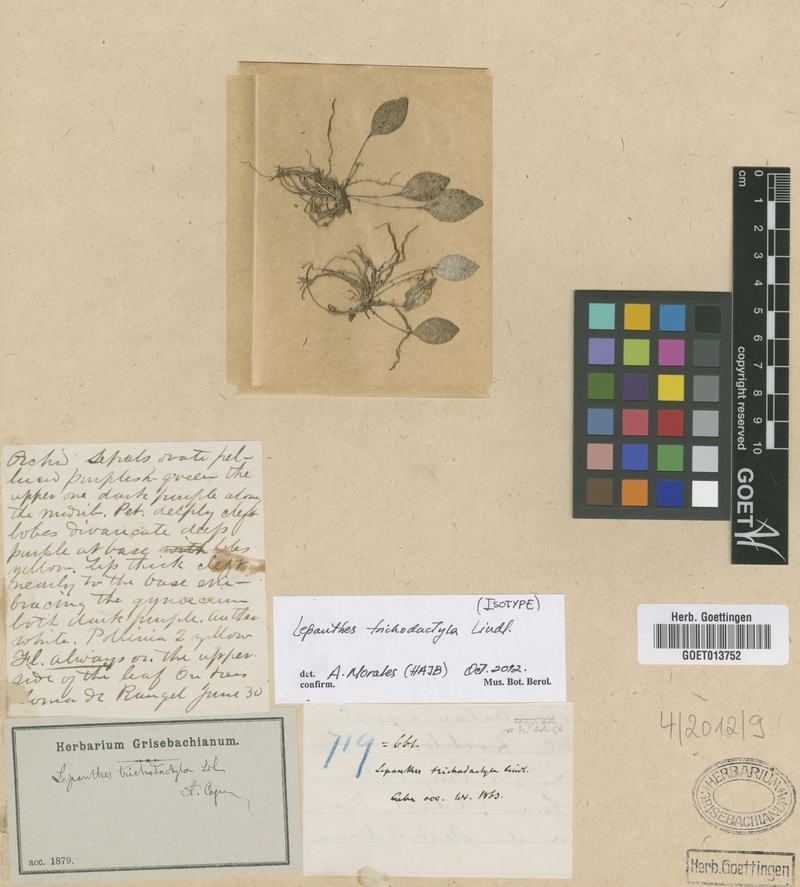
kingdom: Plantae
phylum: Tracheophyta
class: Liliopsida
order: Asparagales
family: Orchidaceae
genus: Lepanthes
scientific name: Lepanthes trichodactyla
